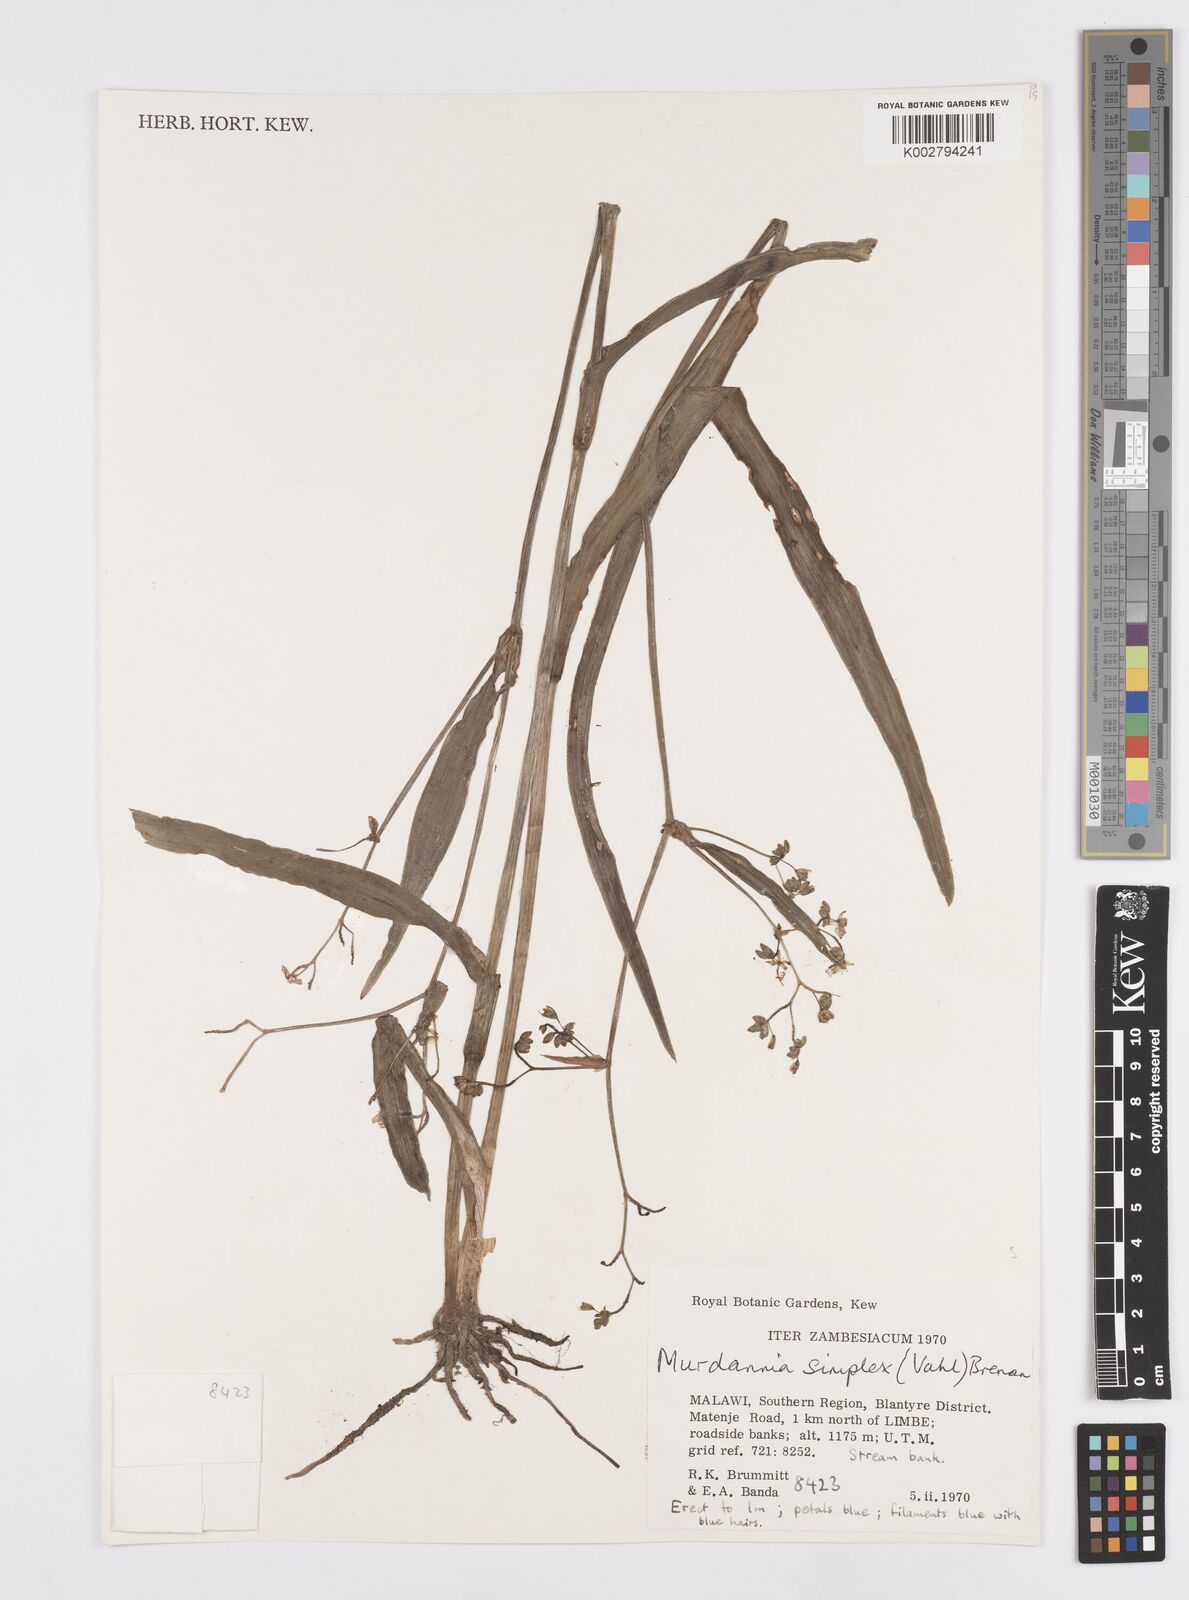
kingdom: Plantae
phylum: Tracheophyta
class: Liliopsida
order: Commelinales
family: Commelinaceae
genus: Murdannia
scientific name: Murdannia simplex
